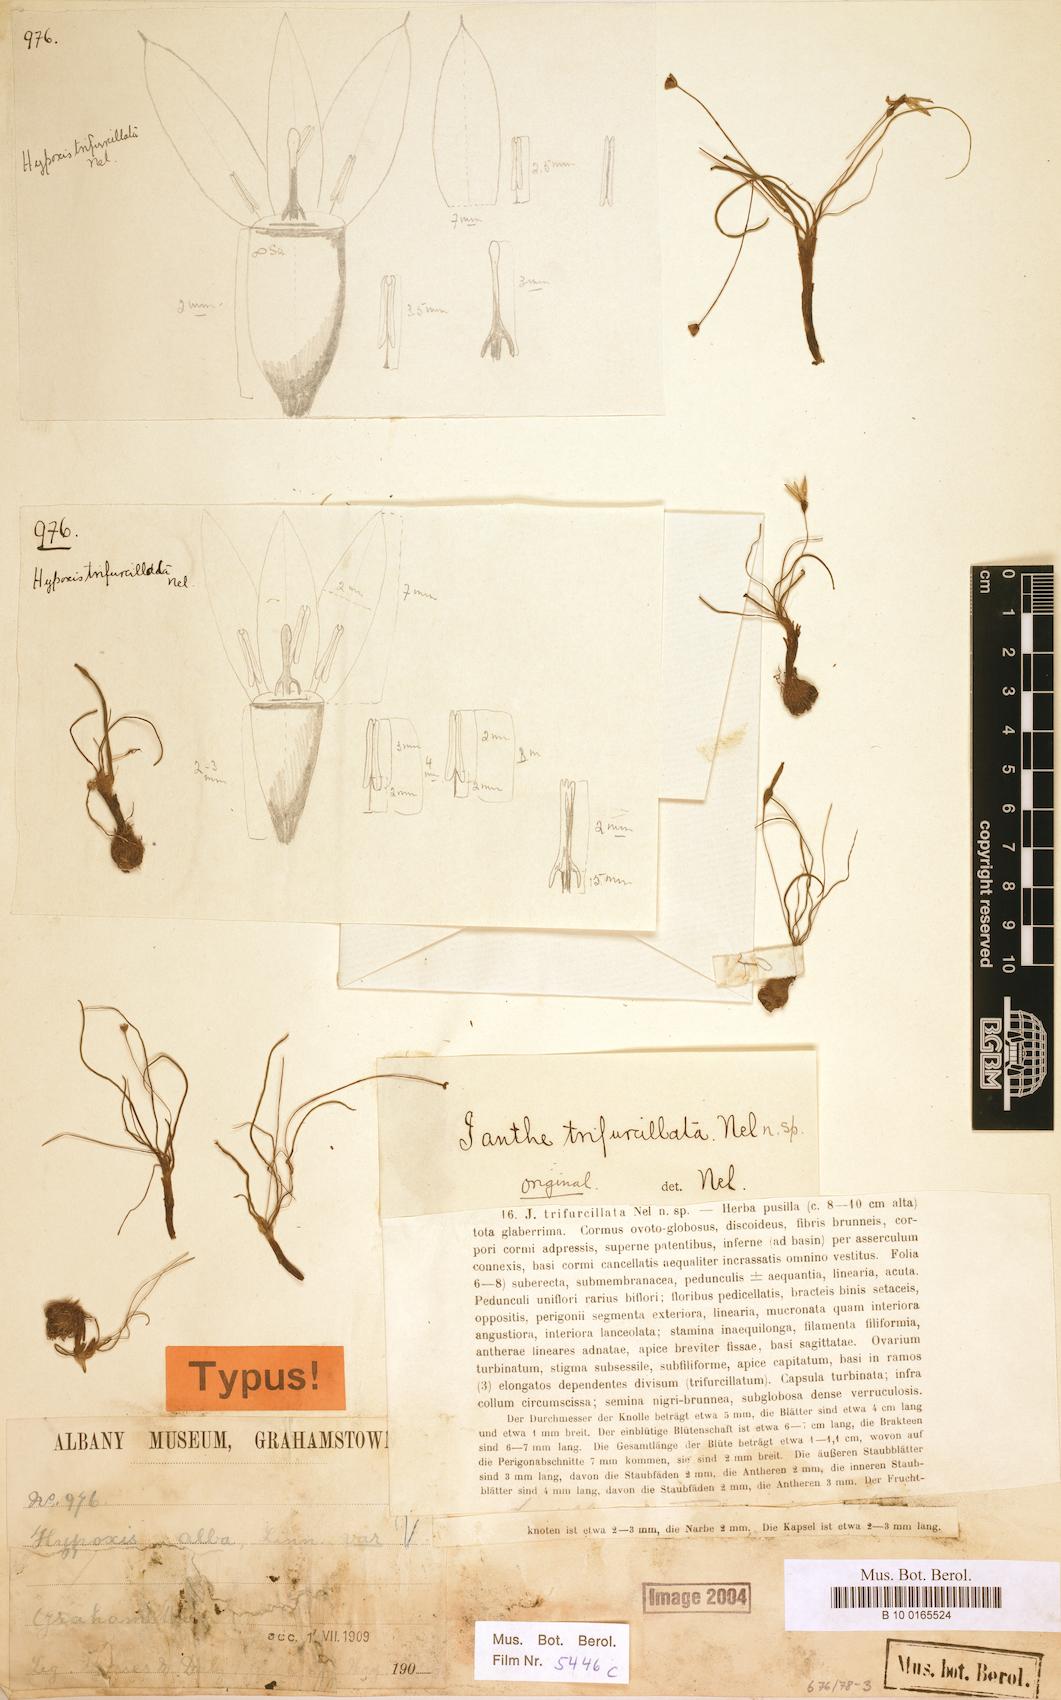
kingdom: Plantae
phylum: Tracheophyta
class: Liliopsida
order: Asparagales
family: Hypoxidaceae
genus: Pauridia
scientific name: Pauridia trifurcillata
